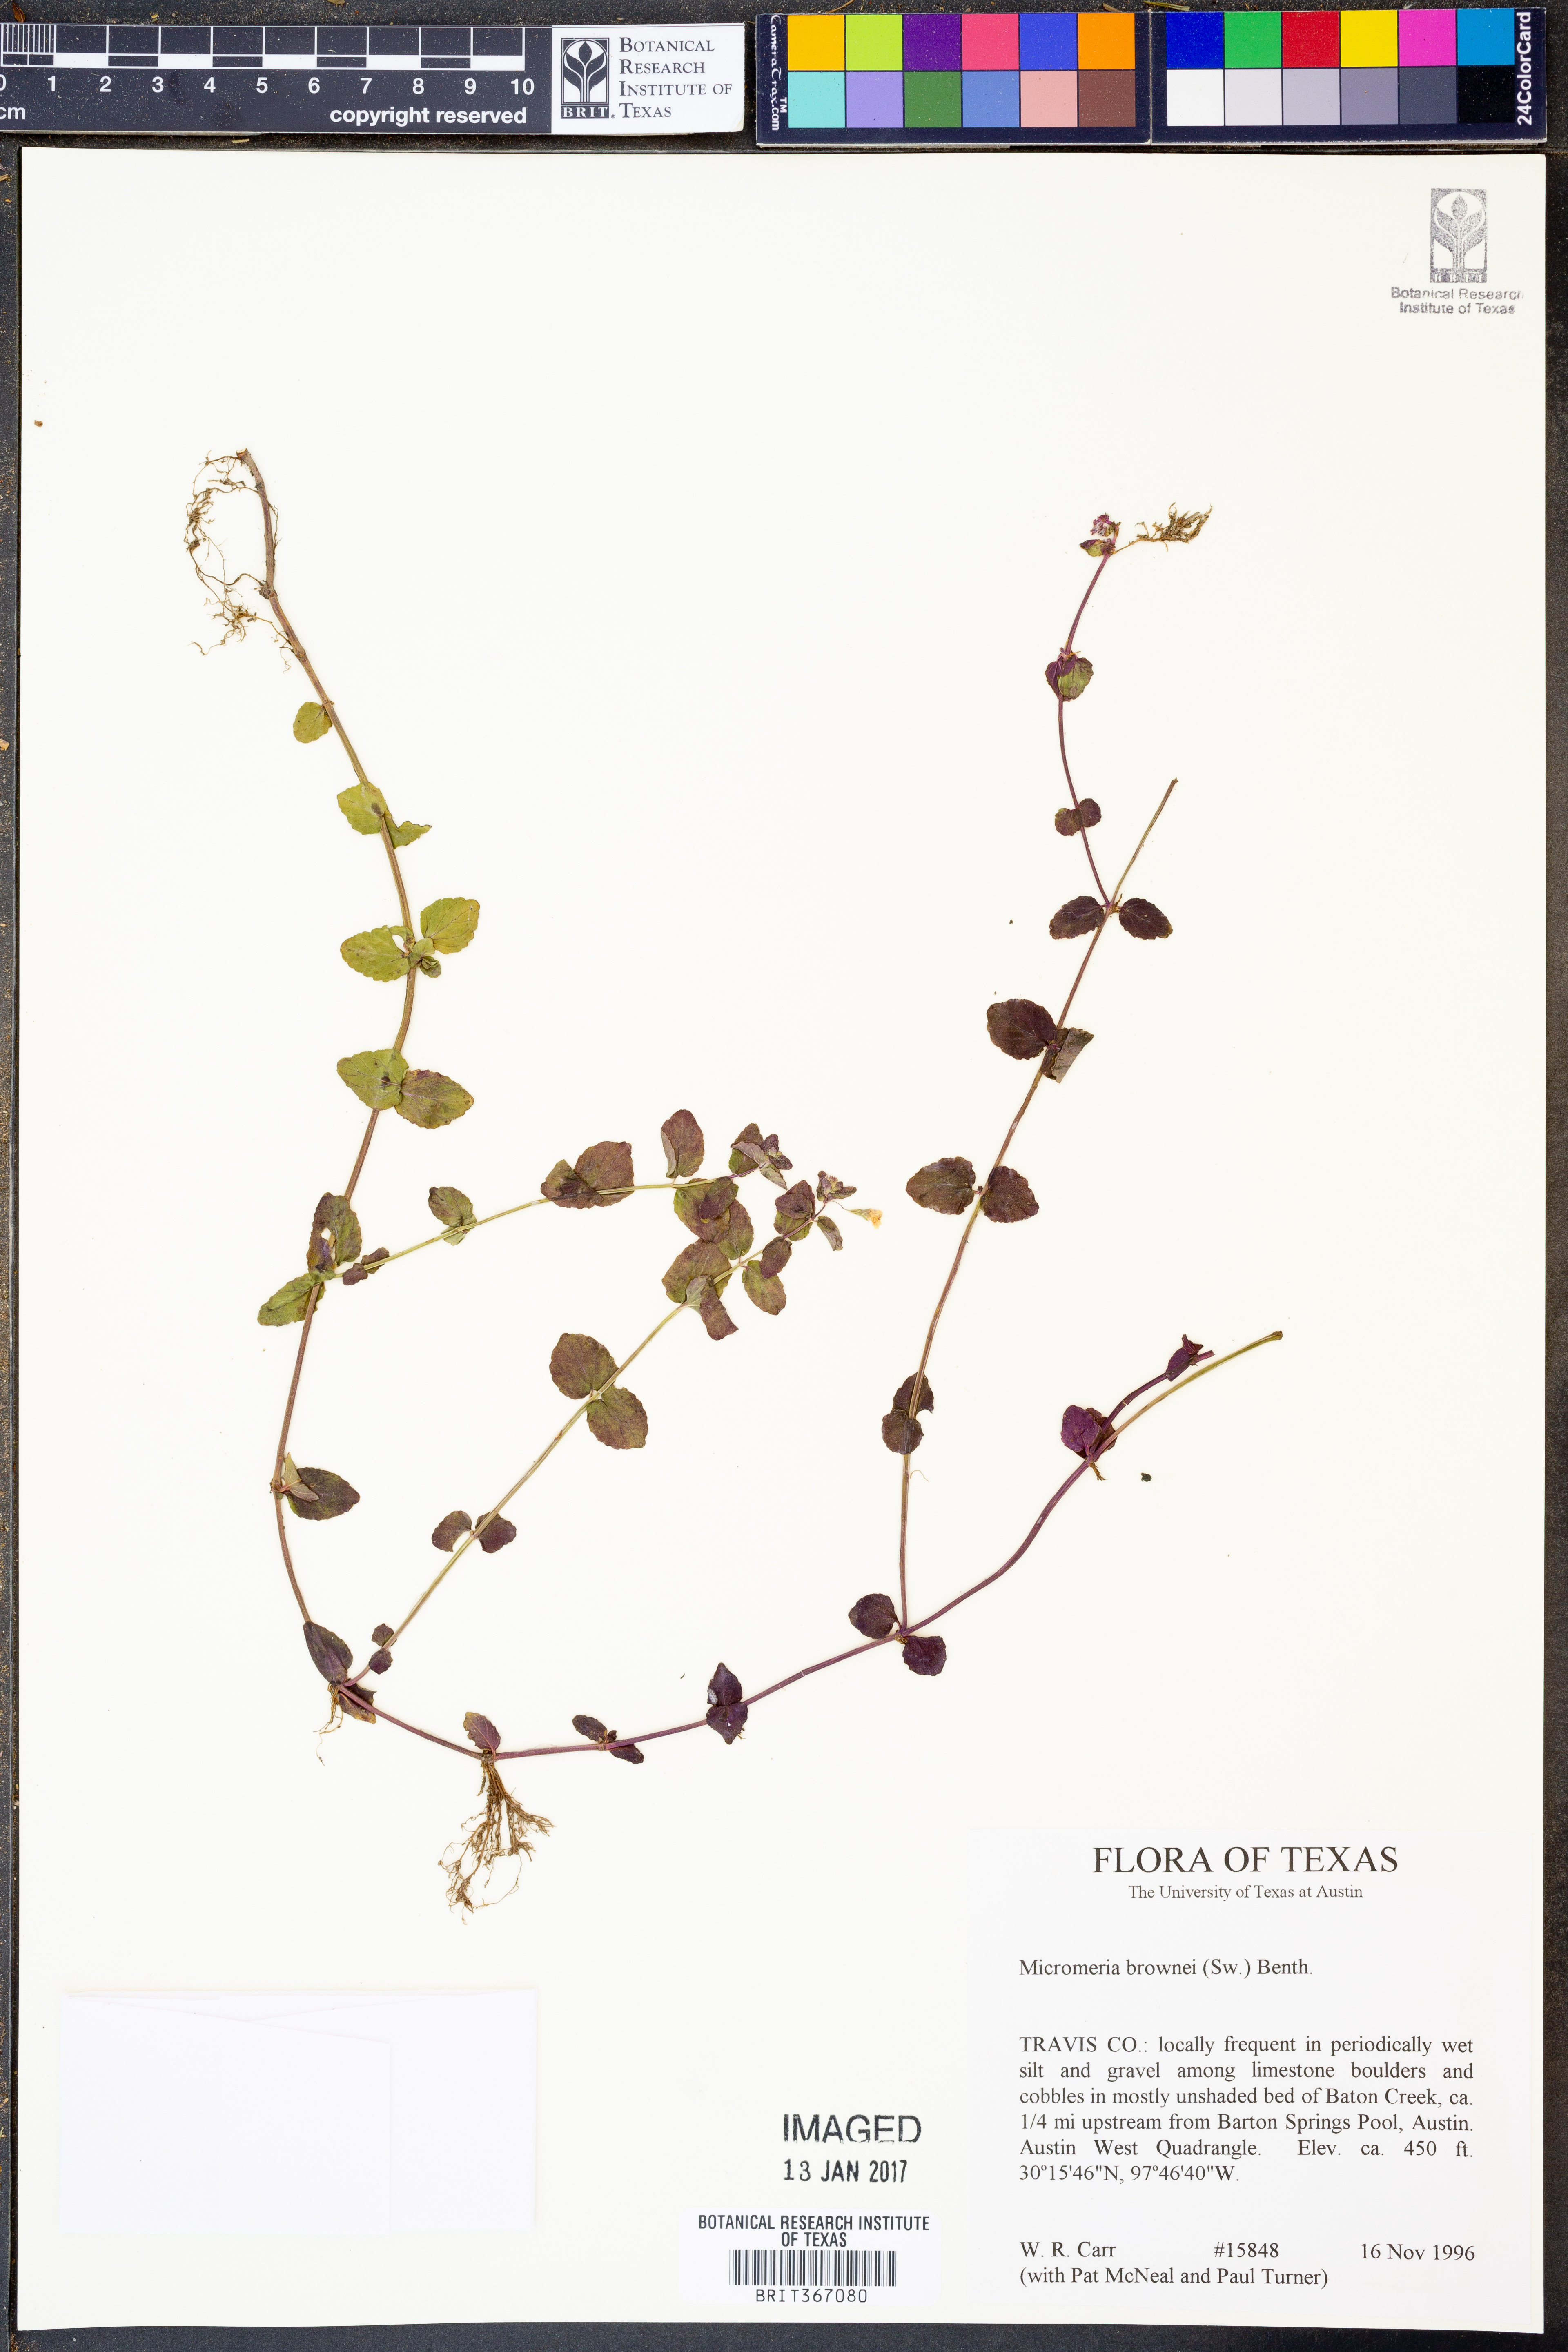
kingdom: Plantae
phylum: Tracheophyta
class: Magnoliopsida
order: Lamiales
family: Lamiaceae
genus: Clinopodium
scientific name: Clinopodium brownei
